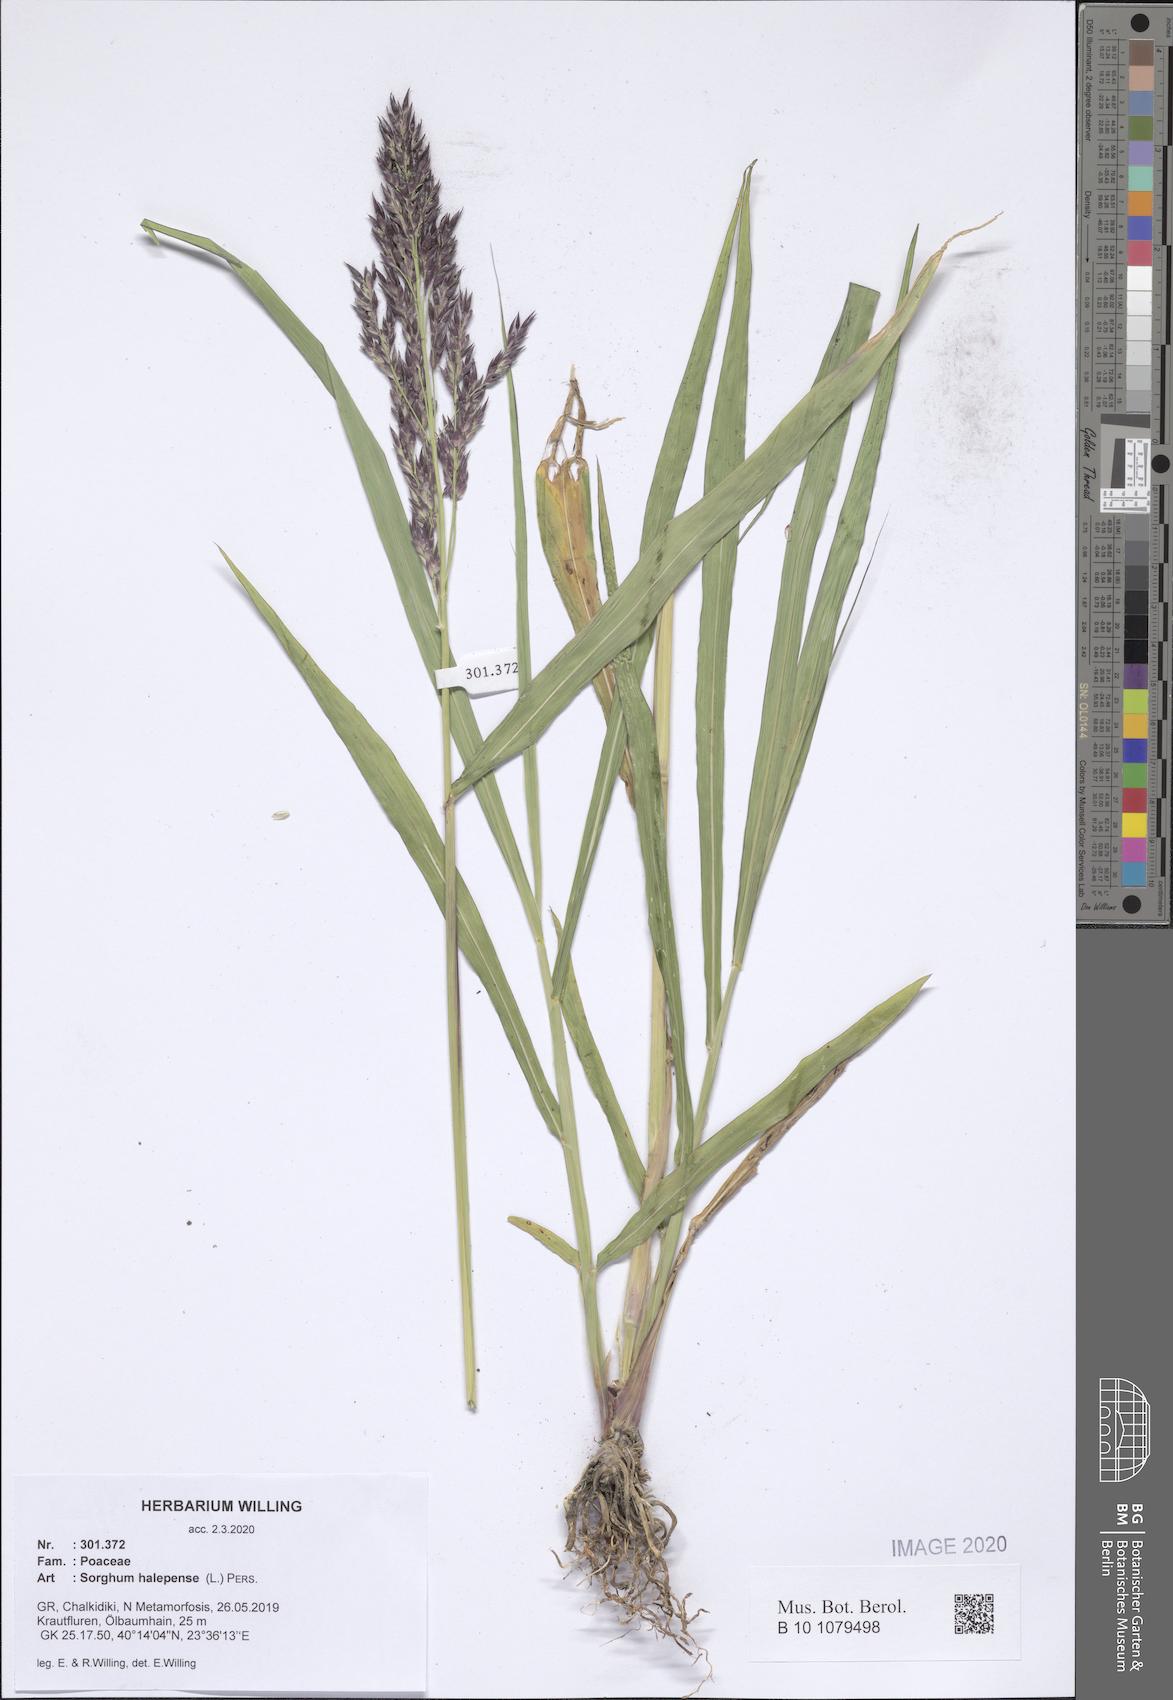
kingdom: Plantae
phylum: Tracheophyta
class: Liliopsida
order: Poales
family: Poaceae
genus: Sorghum
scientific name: Sorghum halepense
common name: Johnson-grass
